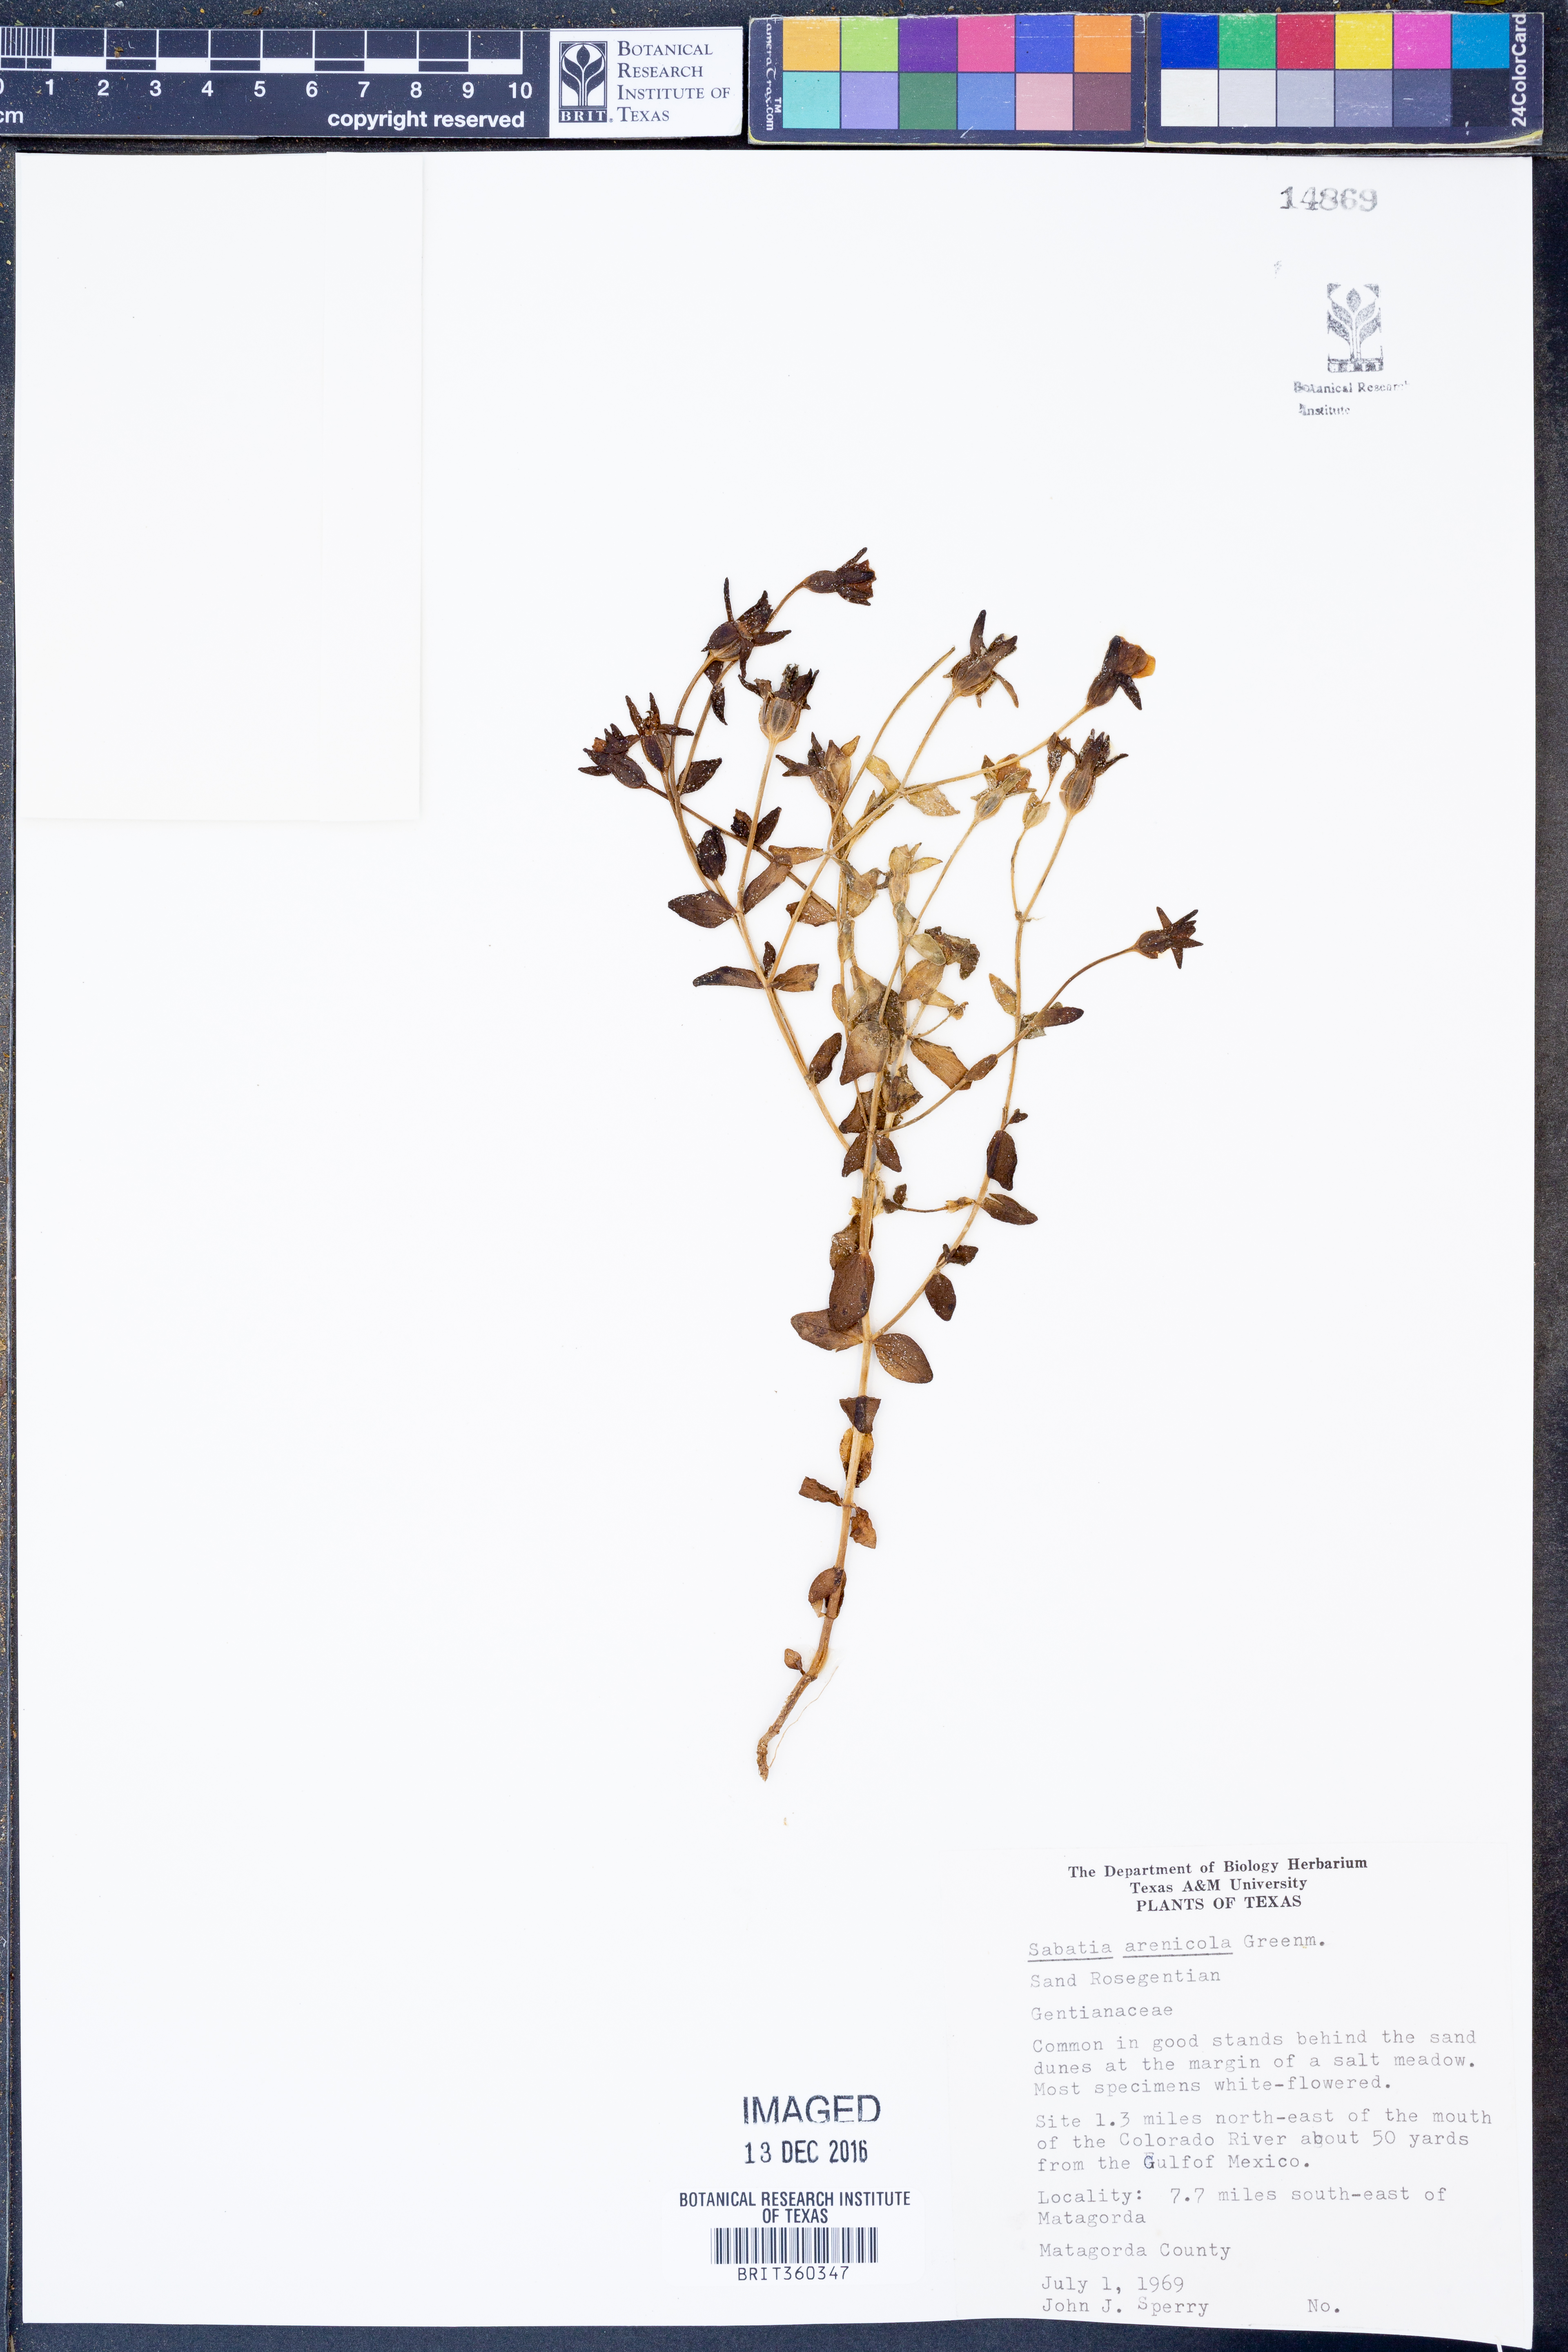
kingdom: Plantae
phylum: Tracheophyta
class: Magnoliopsida
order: Gentianales
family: Gentianaceae
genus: Sabatia
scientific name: Sabatia arenicola
